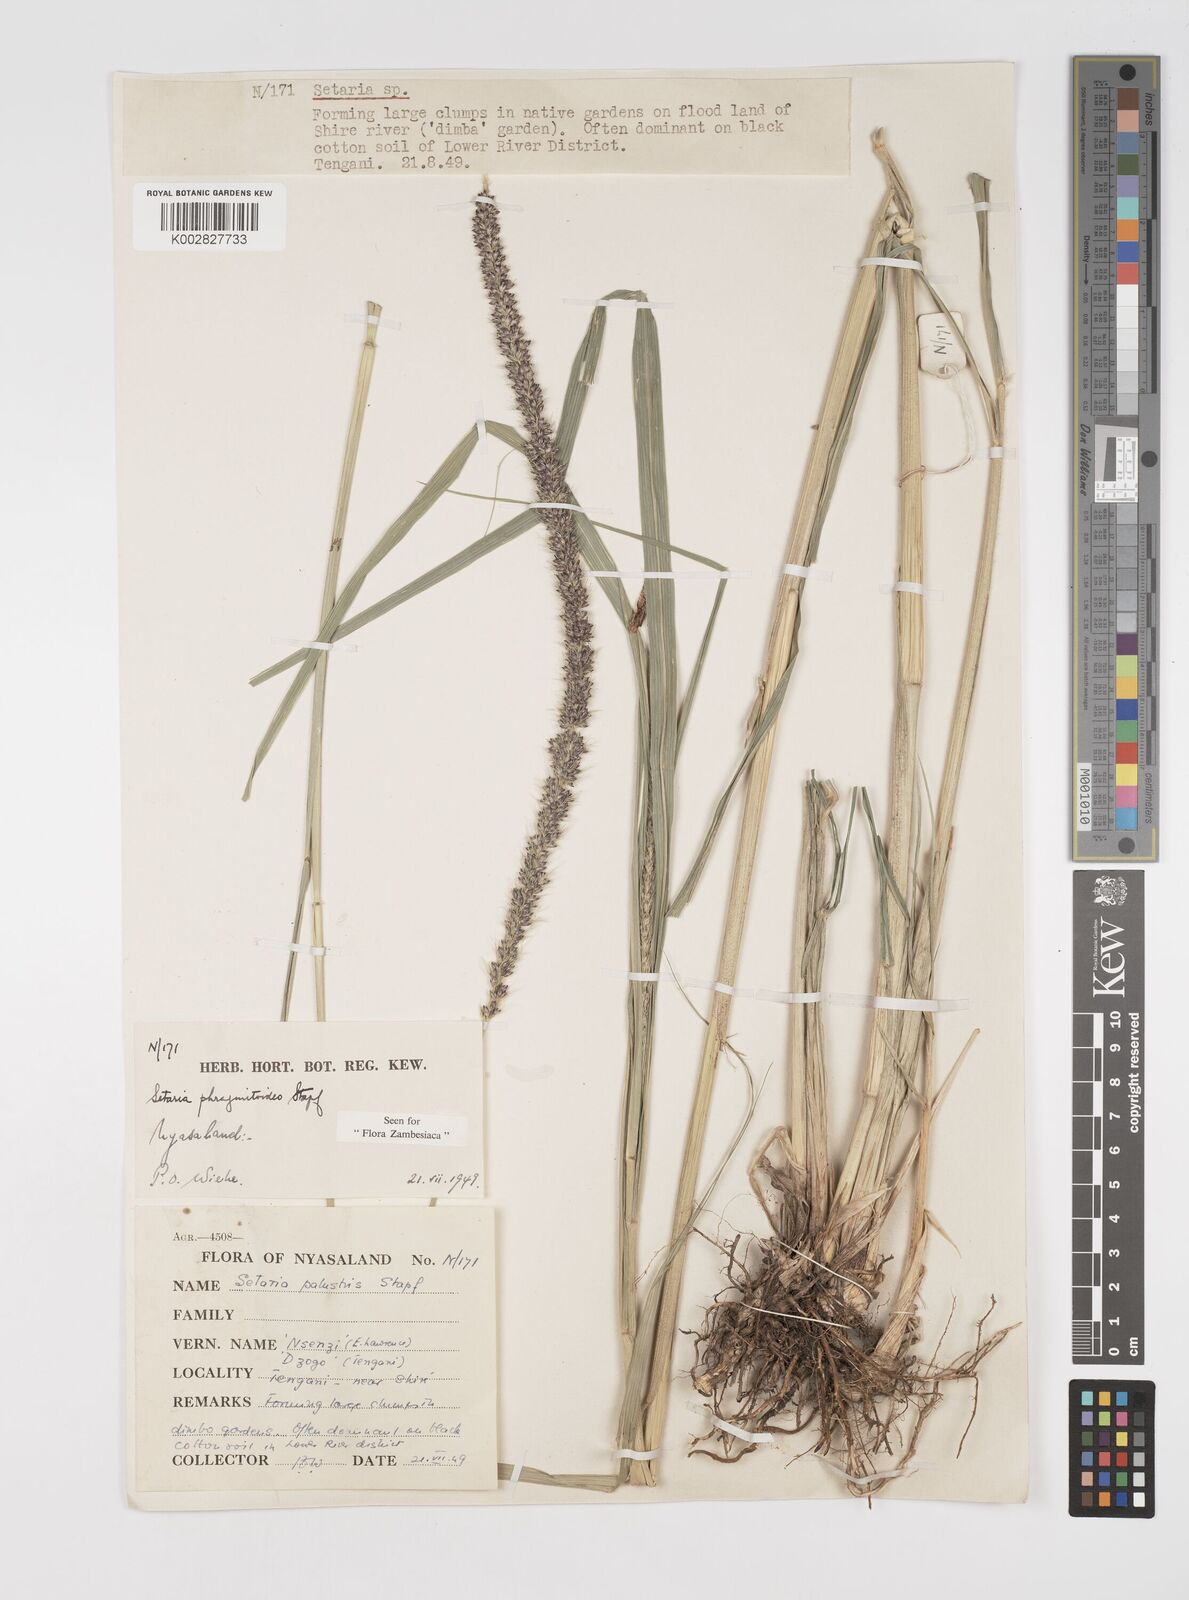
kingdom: Plantae
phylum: Tracheophyta
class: Liliopsida
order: Poales
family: Poaceae
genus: Setaria
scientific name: Setaria incrassata
